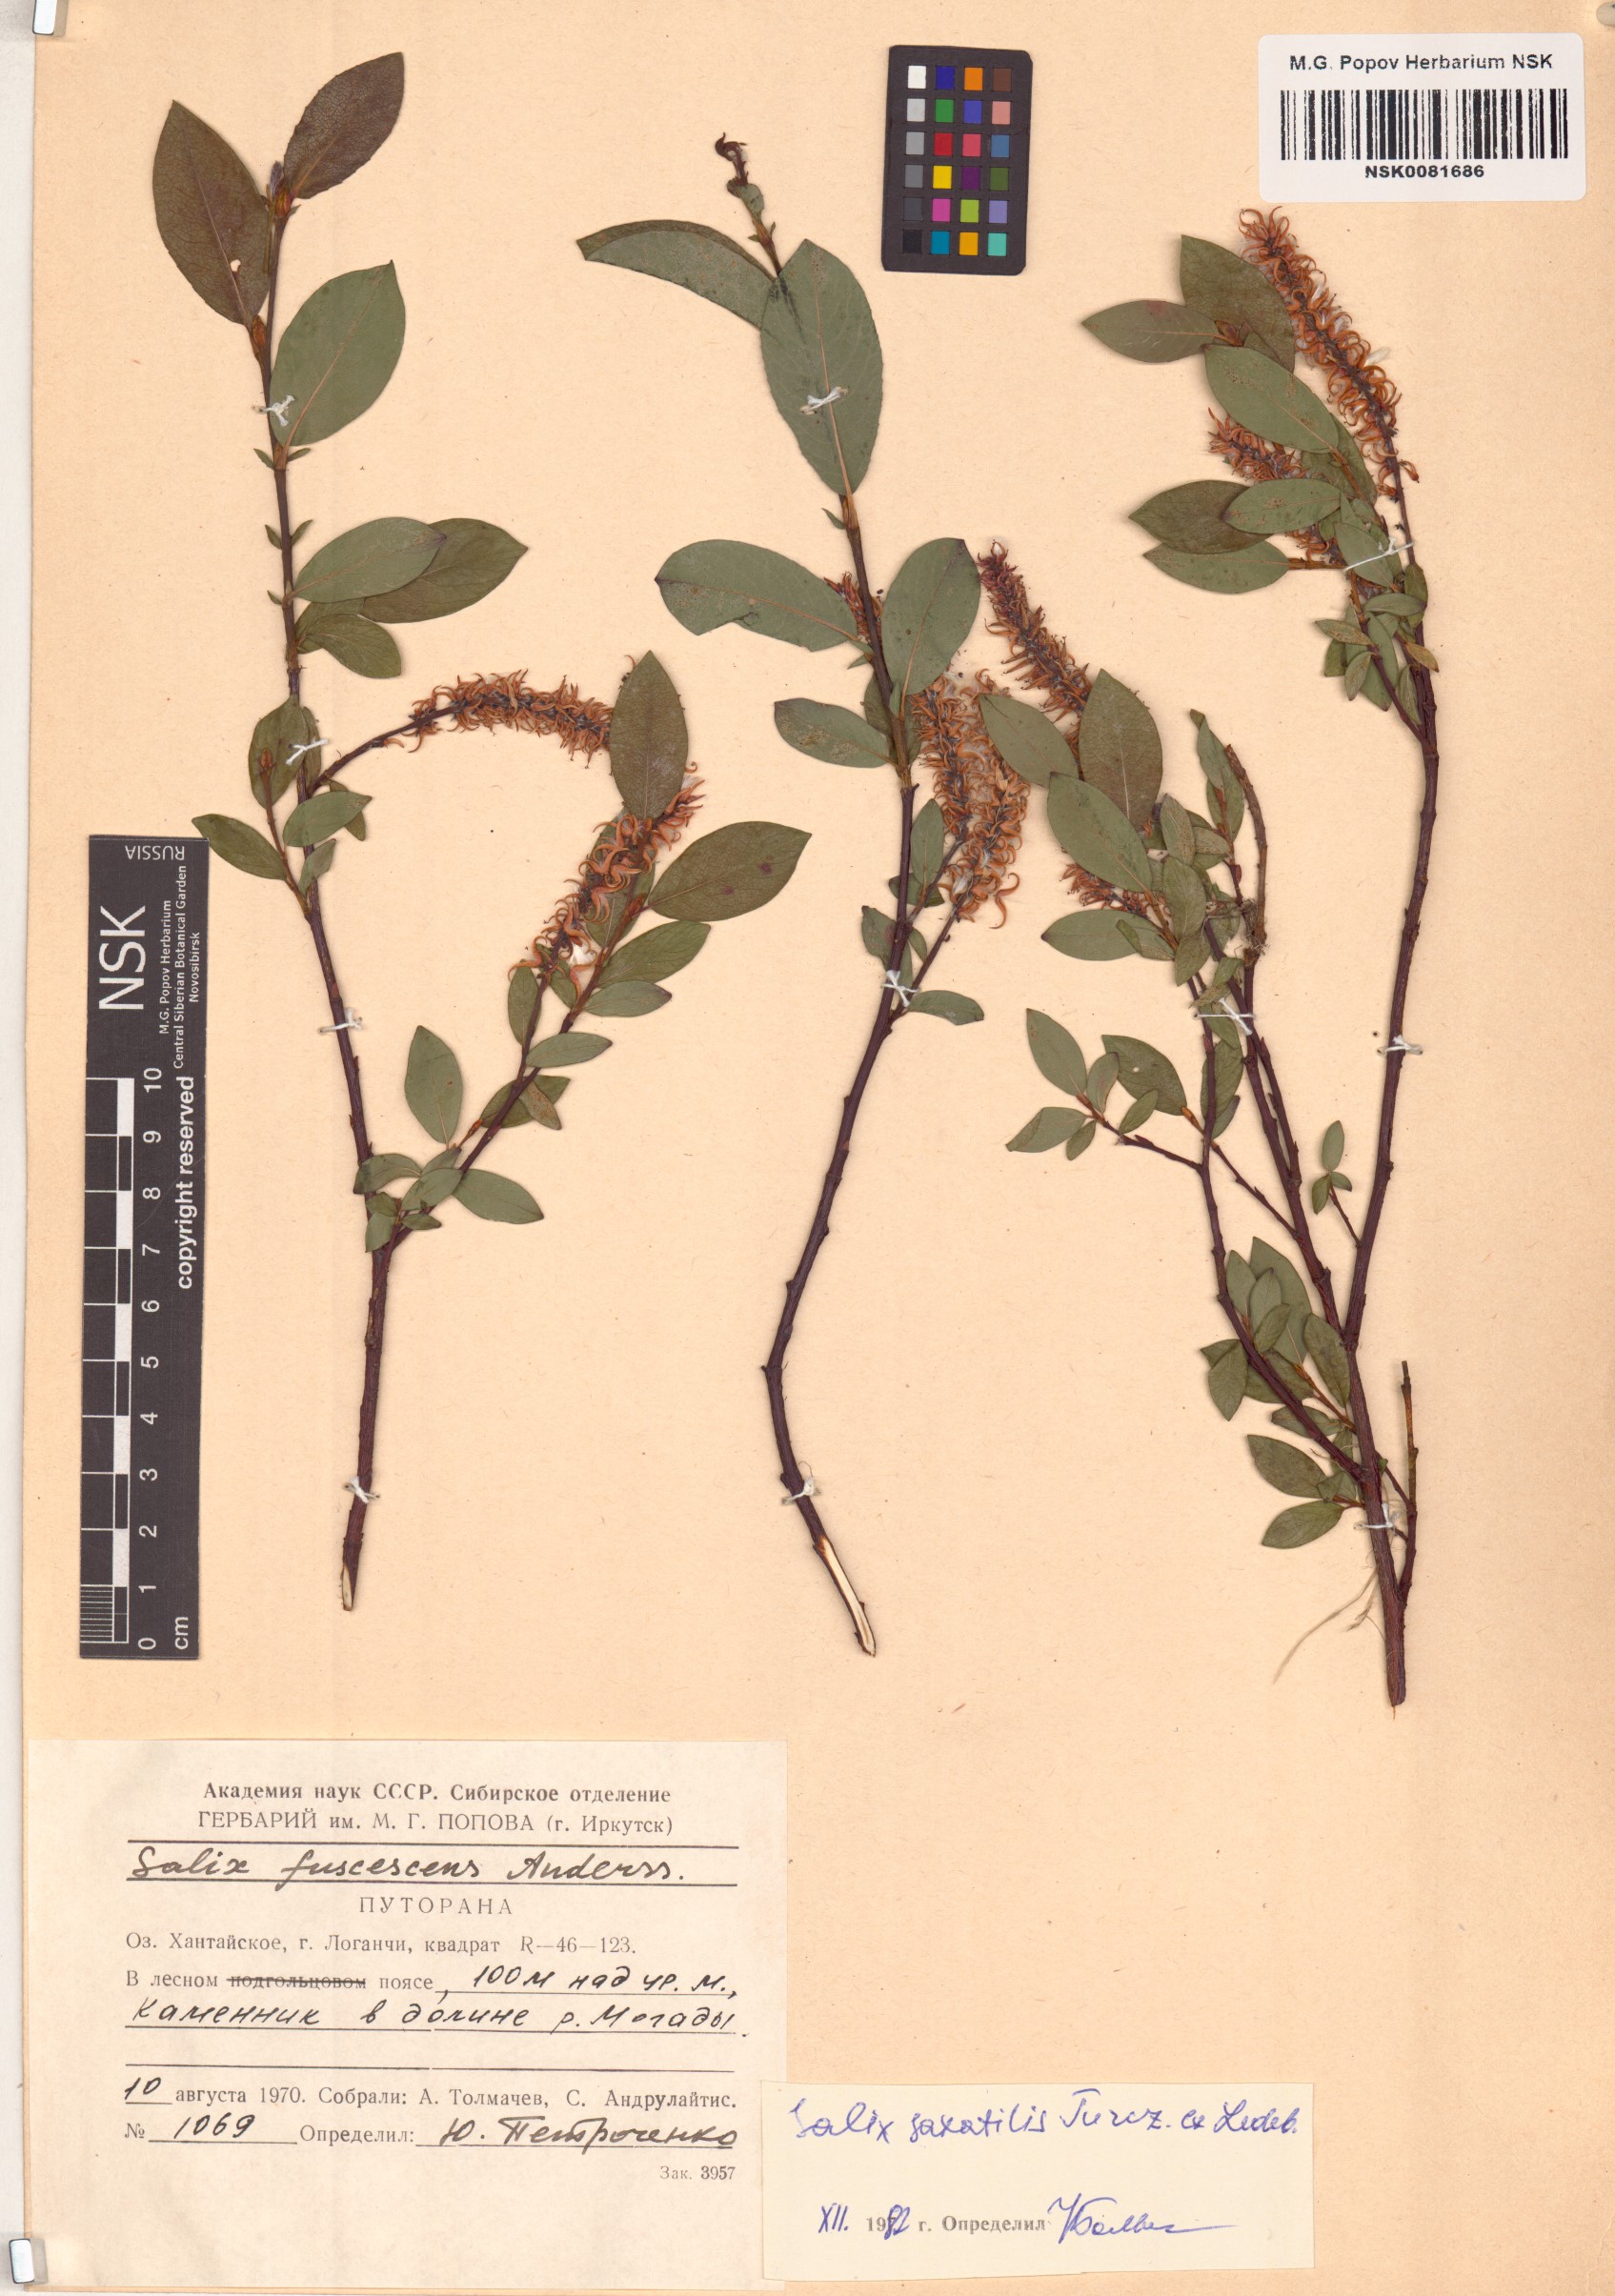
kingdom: Plantae
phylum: Tracheophyta
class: Magnoliopsida
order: Malpighiales
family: Salicaceae
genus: Salix
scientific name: Salix saxatilis
